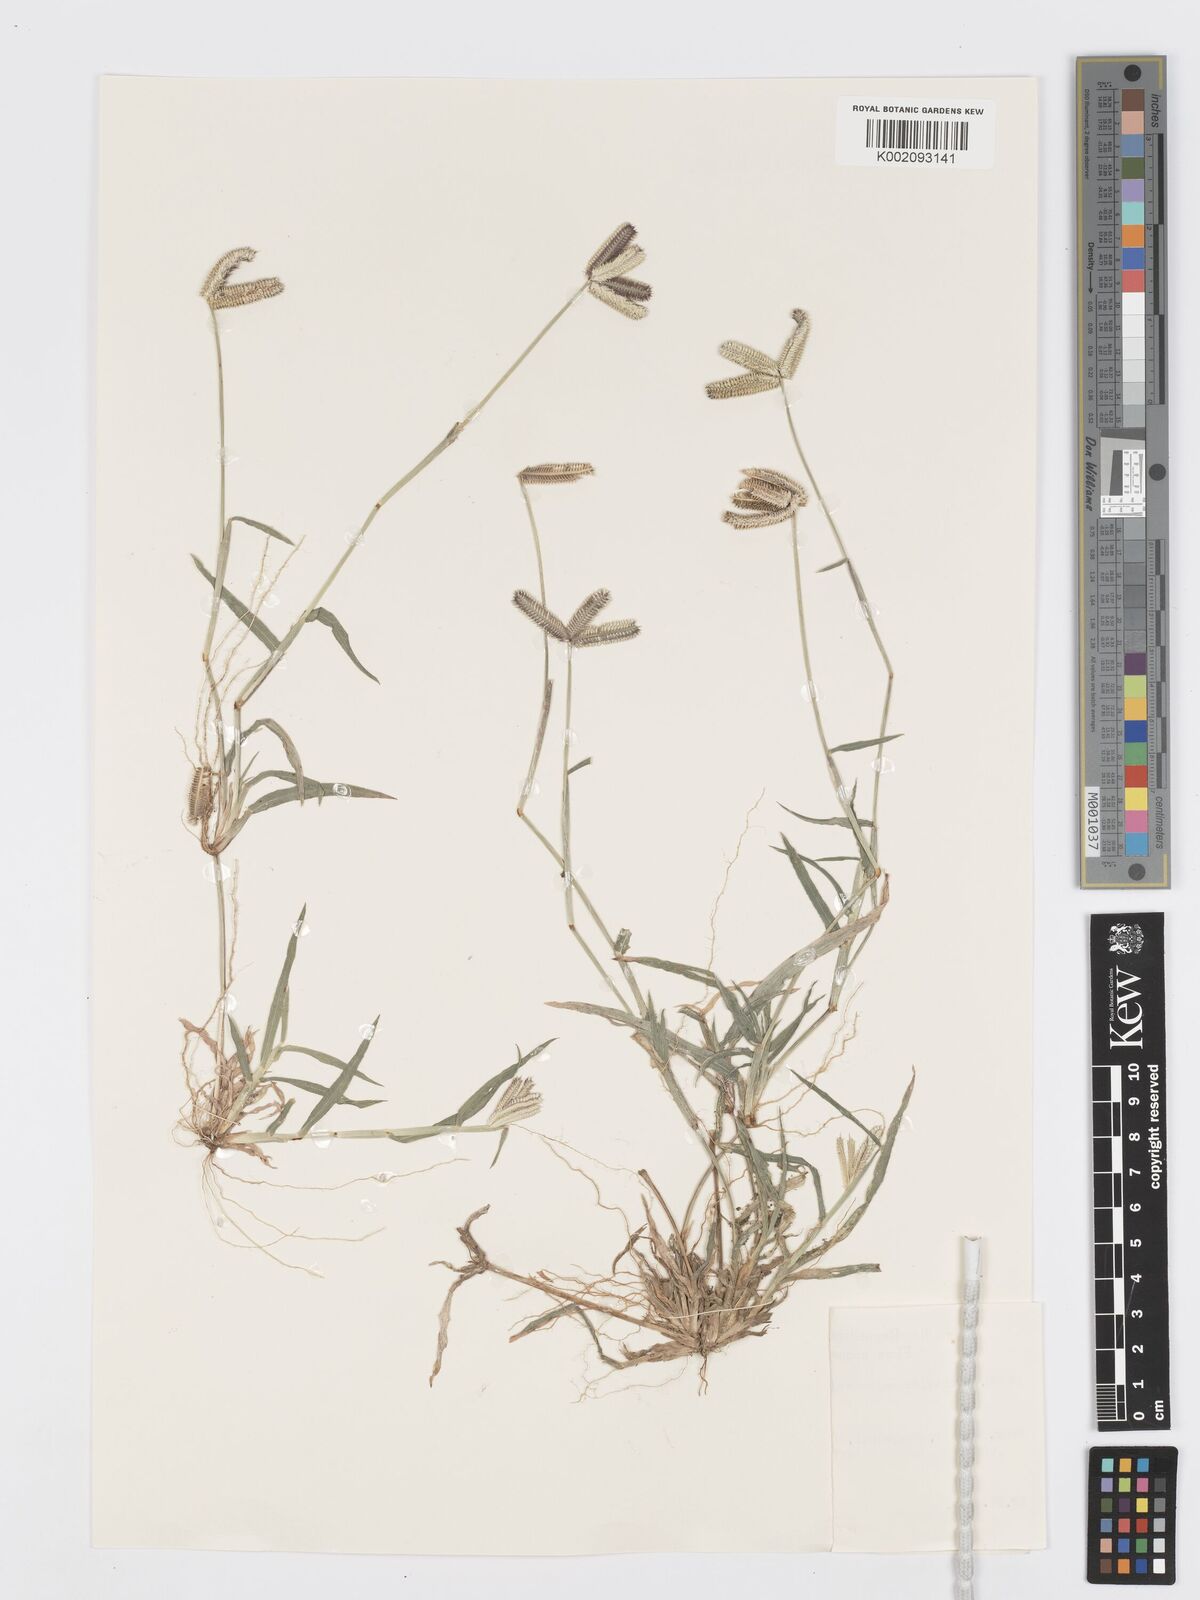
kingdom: Plantae
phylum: Tracheophyta
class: Liliopsida
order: Poales
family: Poaceae
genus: Dactyloctenium
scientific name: Dactyloctenium aegyptium
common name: Egyptian grass
